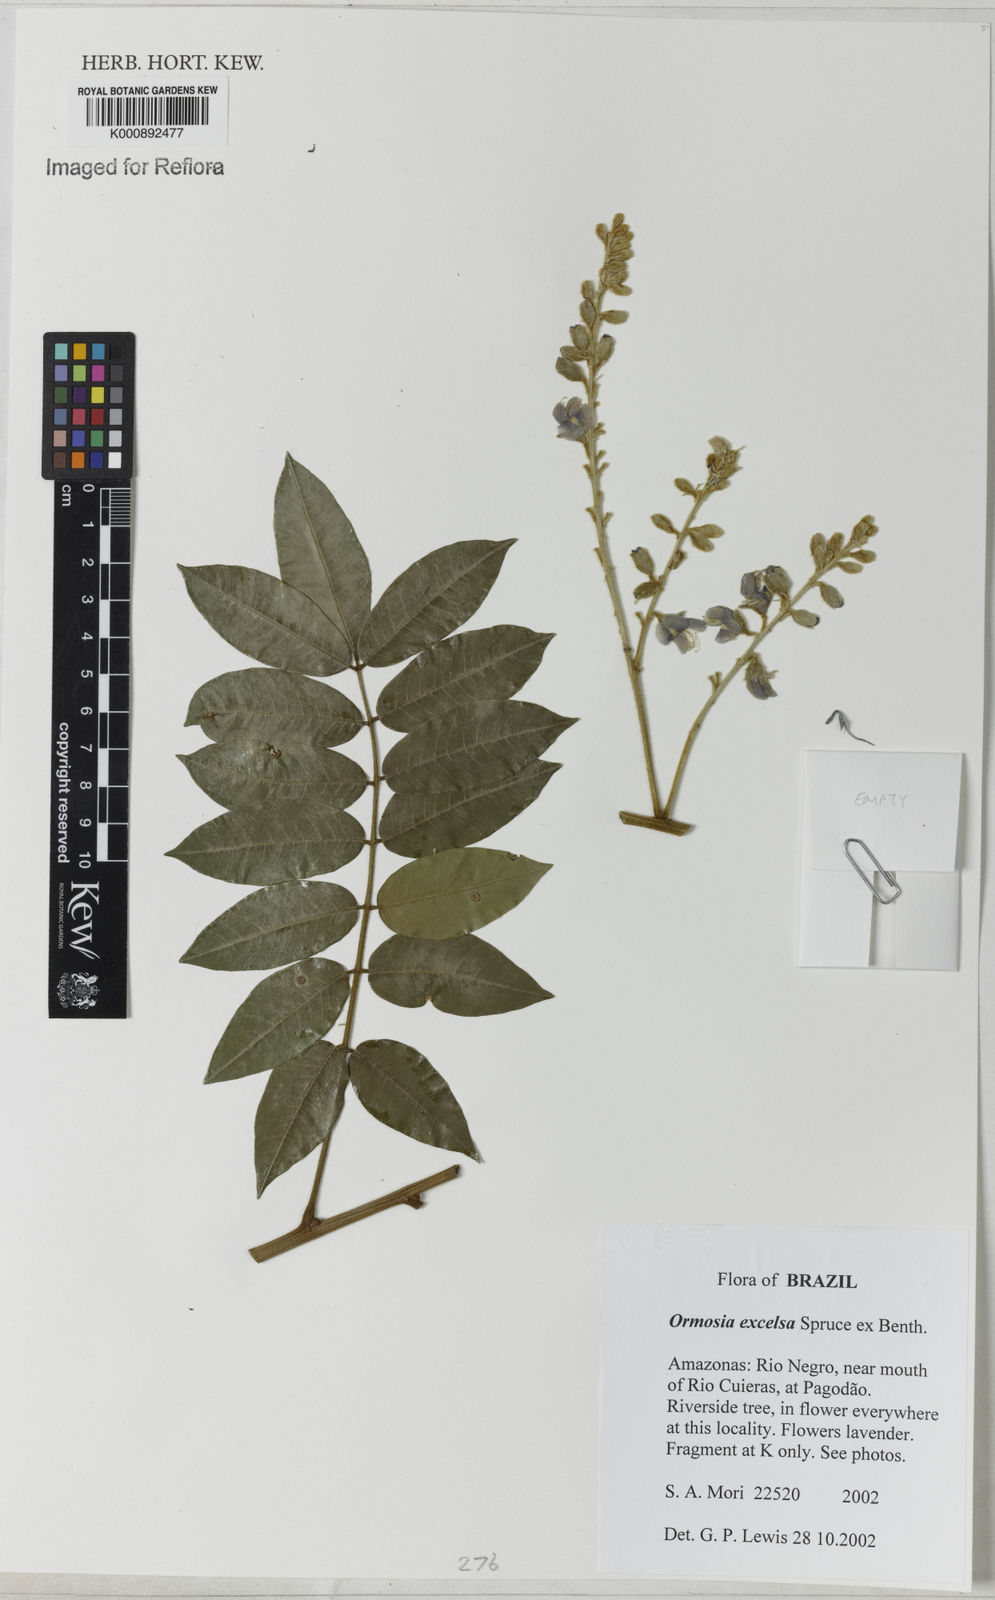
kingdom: Plantae
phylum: Tracheophyta
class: Magnoliopsida
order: Fabales
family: Fabaceae
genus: Ormosia
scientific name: Ormosia excelsa
